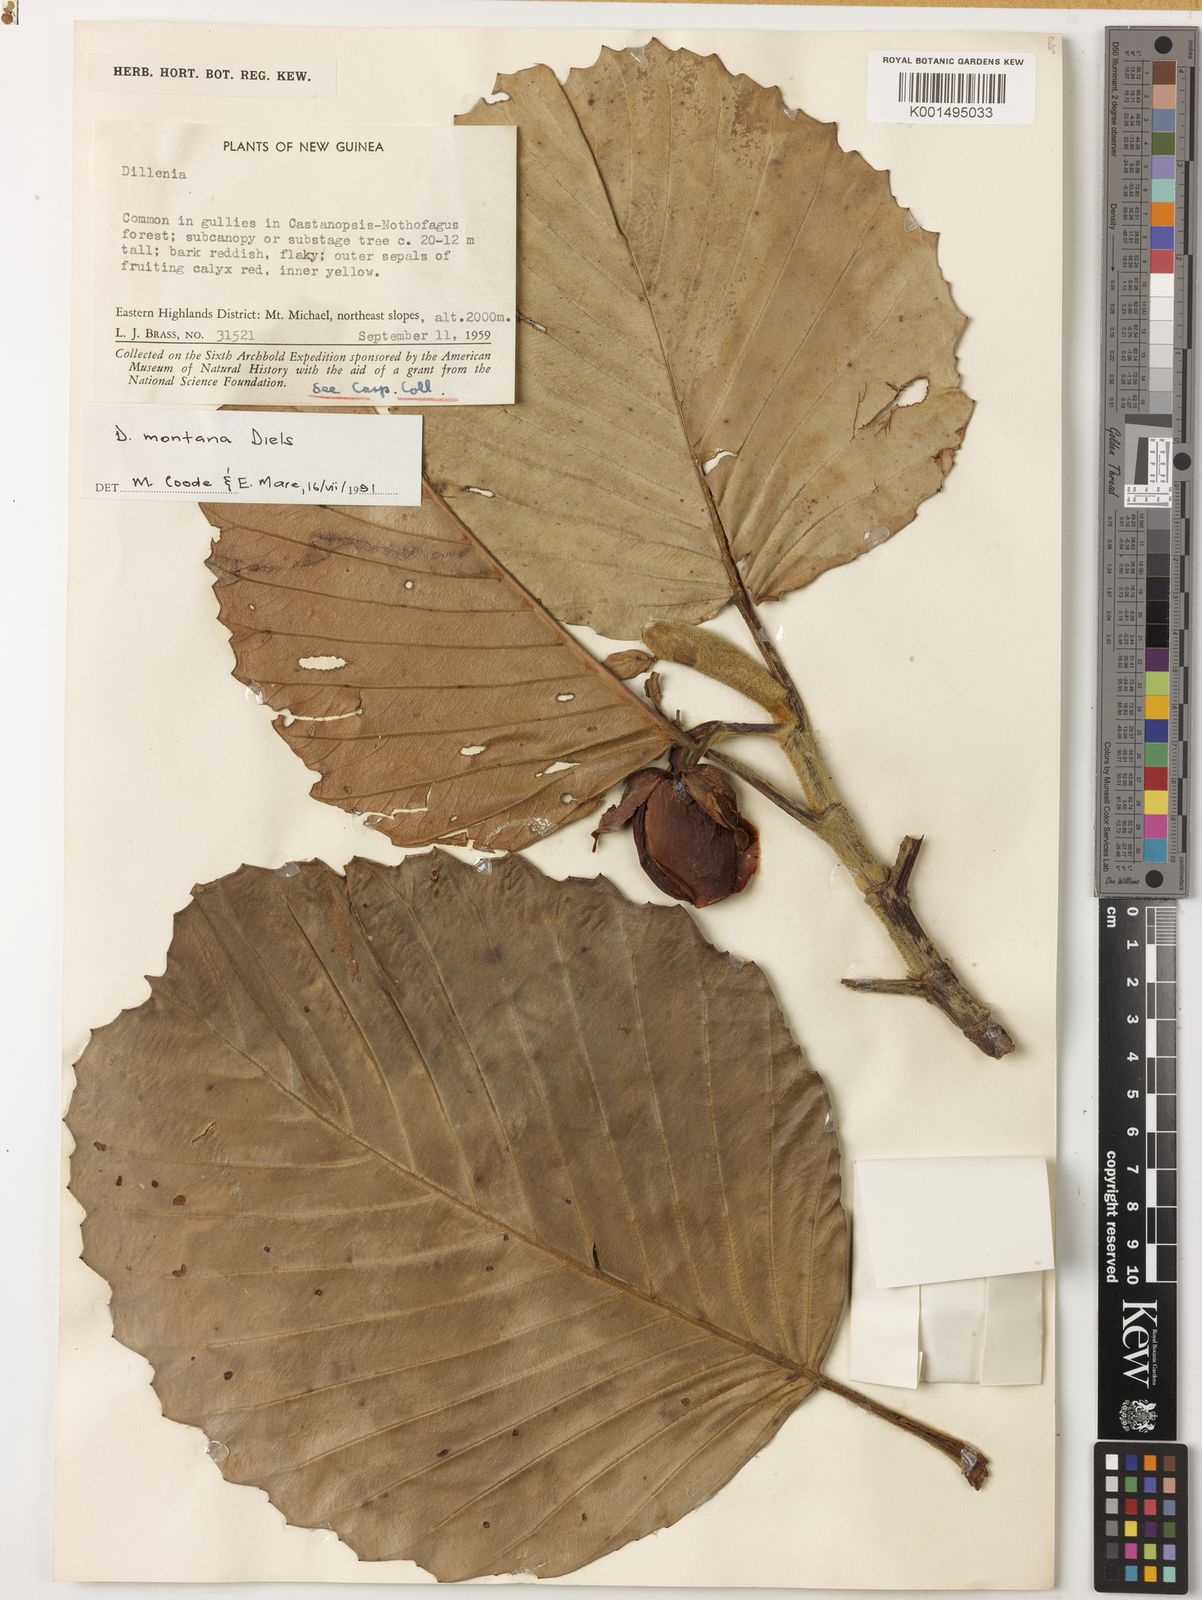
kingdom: Plantae
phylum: Tracheophyta
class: Magnoliopsida
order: Dilleniales
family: Dilleniaceae
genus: Dillenia
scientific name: Dillenia montana
